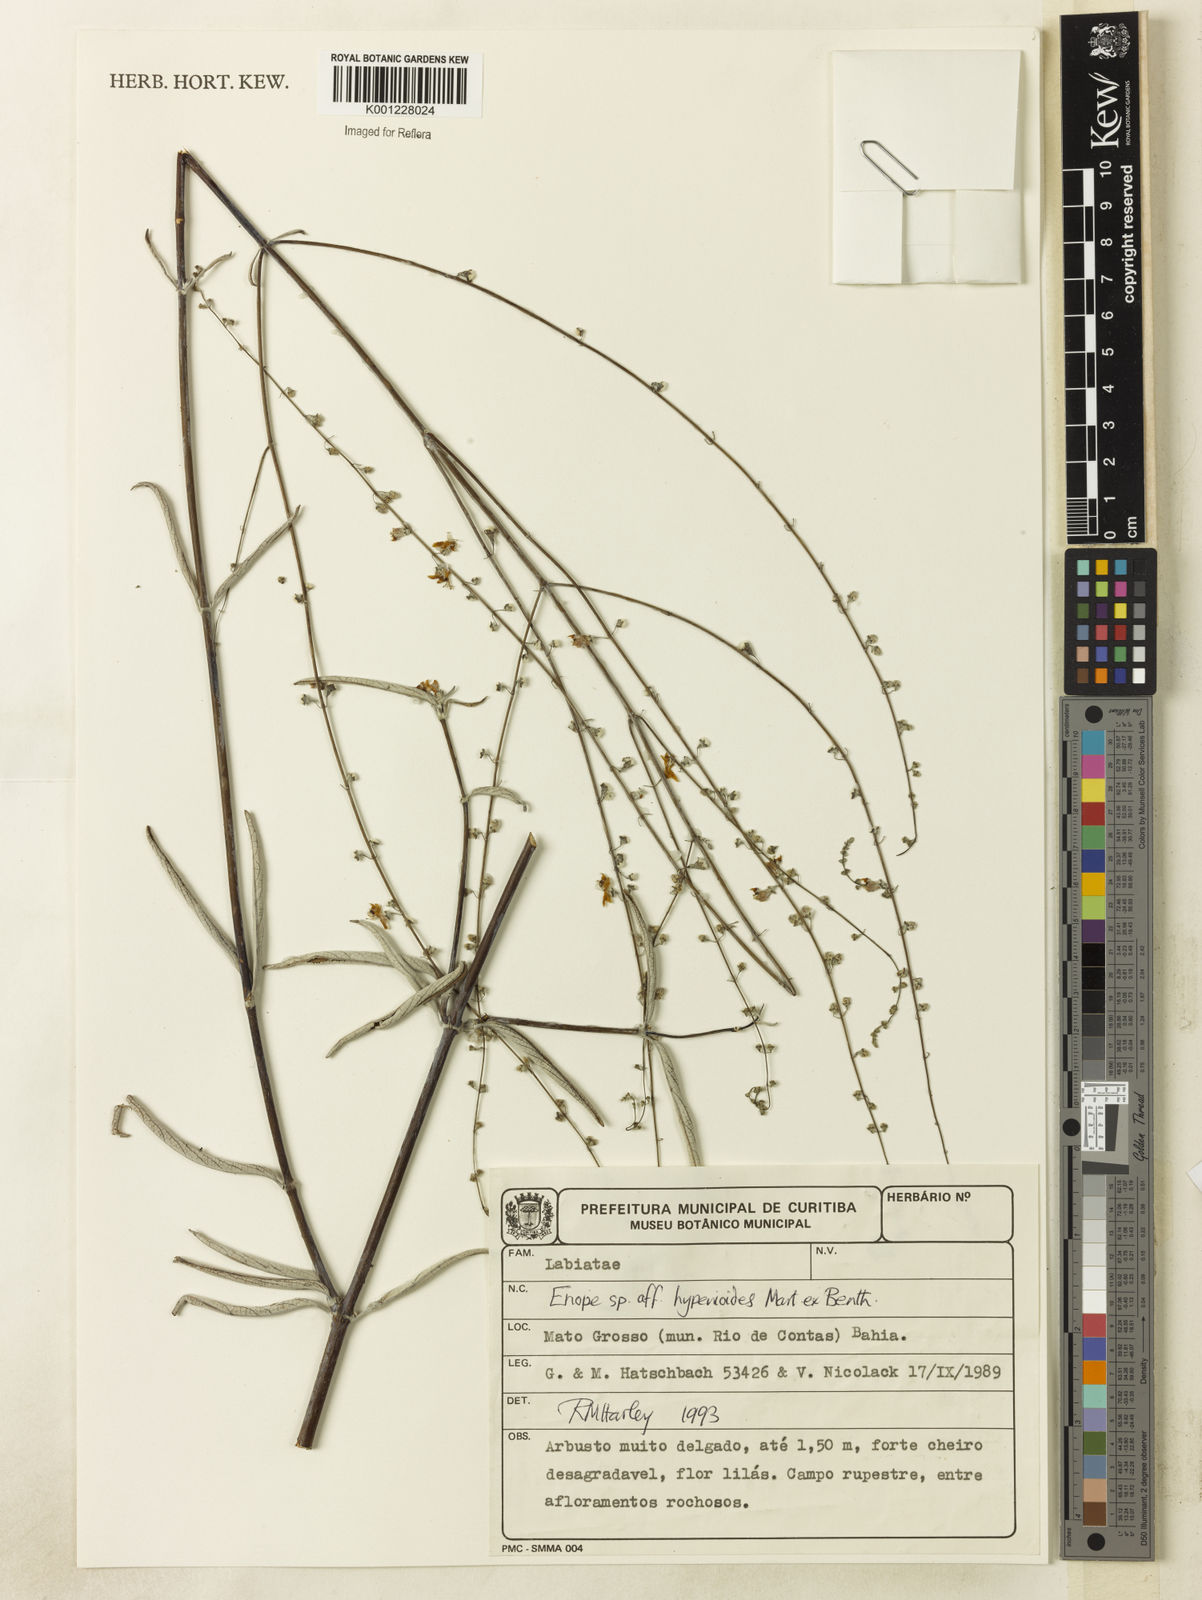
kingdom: Plantae
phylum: Tracheophyta
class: Magnoliopsida
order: Lamiales
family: Lamiaceae
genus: Eriope
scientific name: Eriope hypenioides
